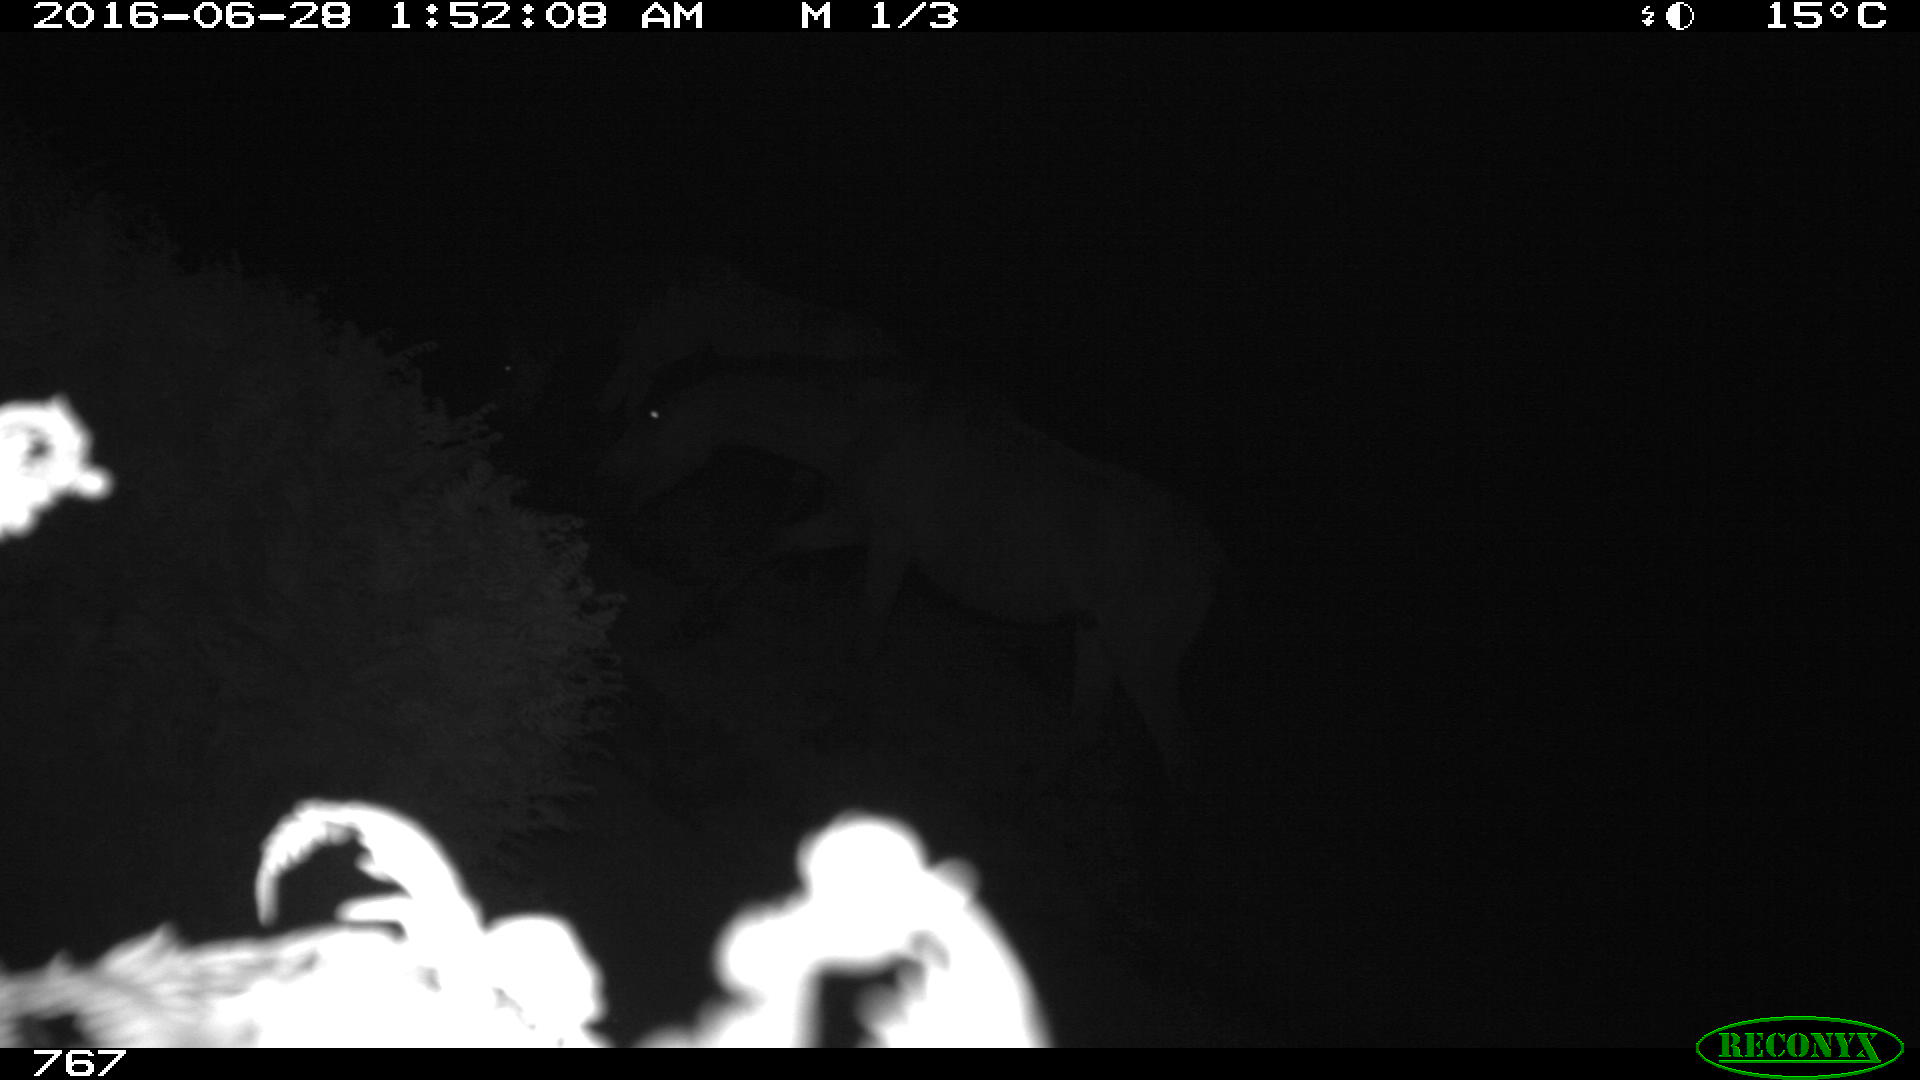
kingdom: Animalia
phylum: Chordata
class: Mammalia
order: Perissodactyla
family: Equidae
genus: Equus
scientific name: Equus caballus
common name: Horse
